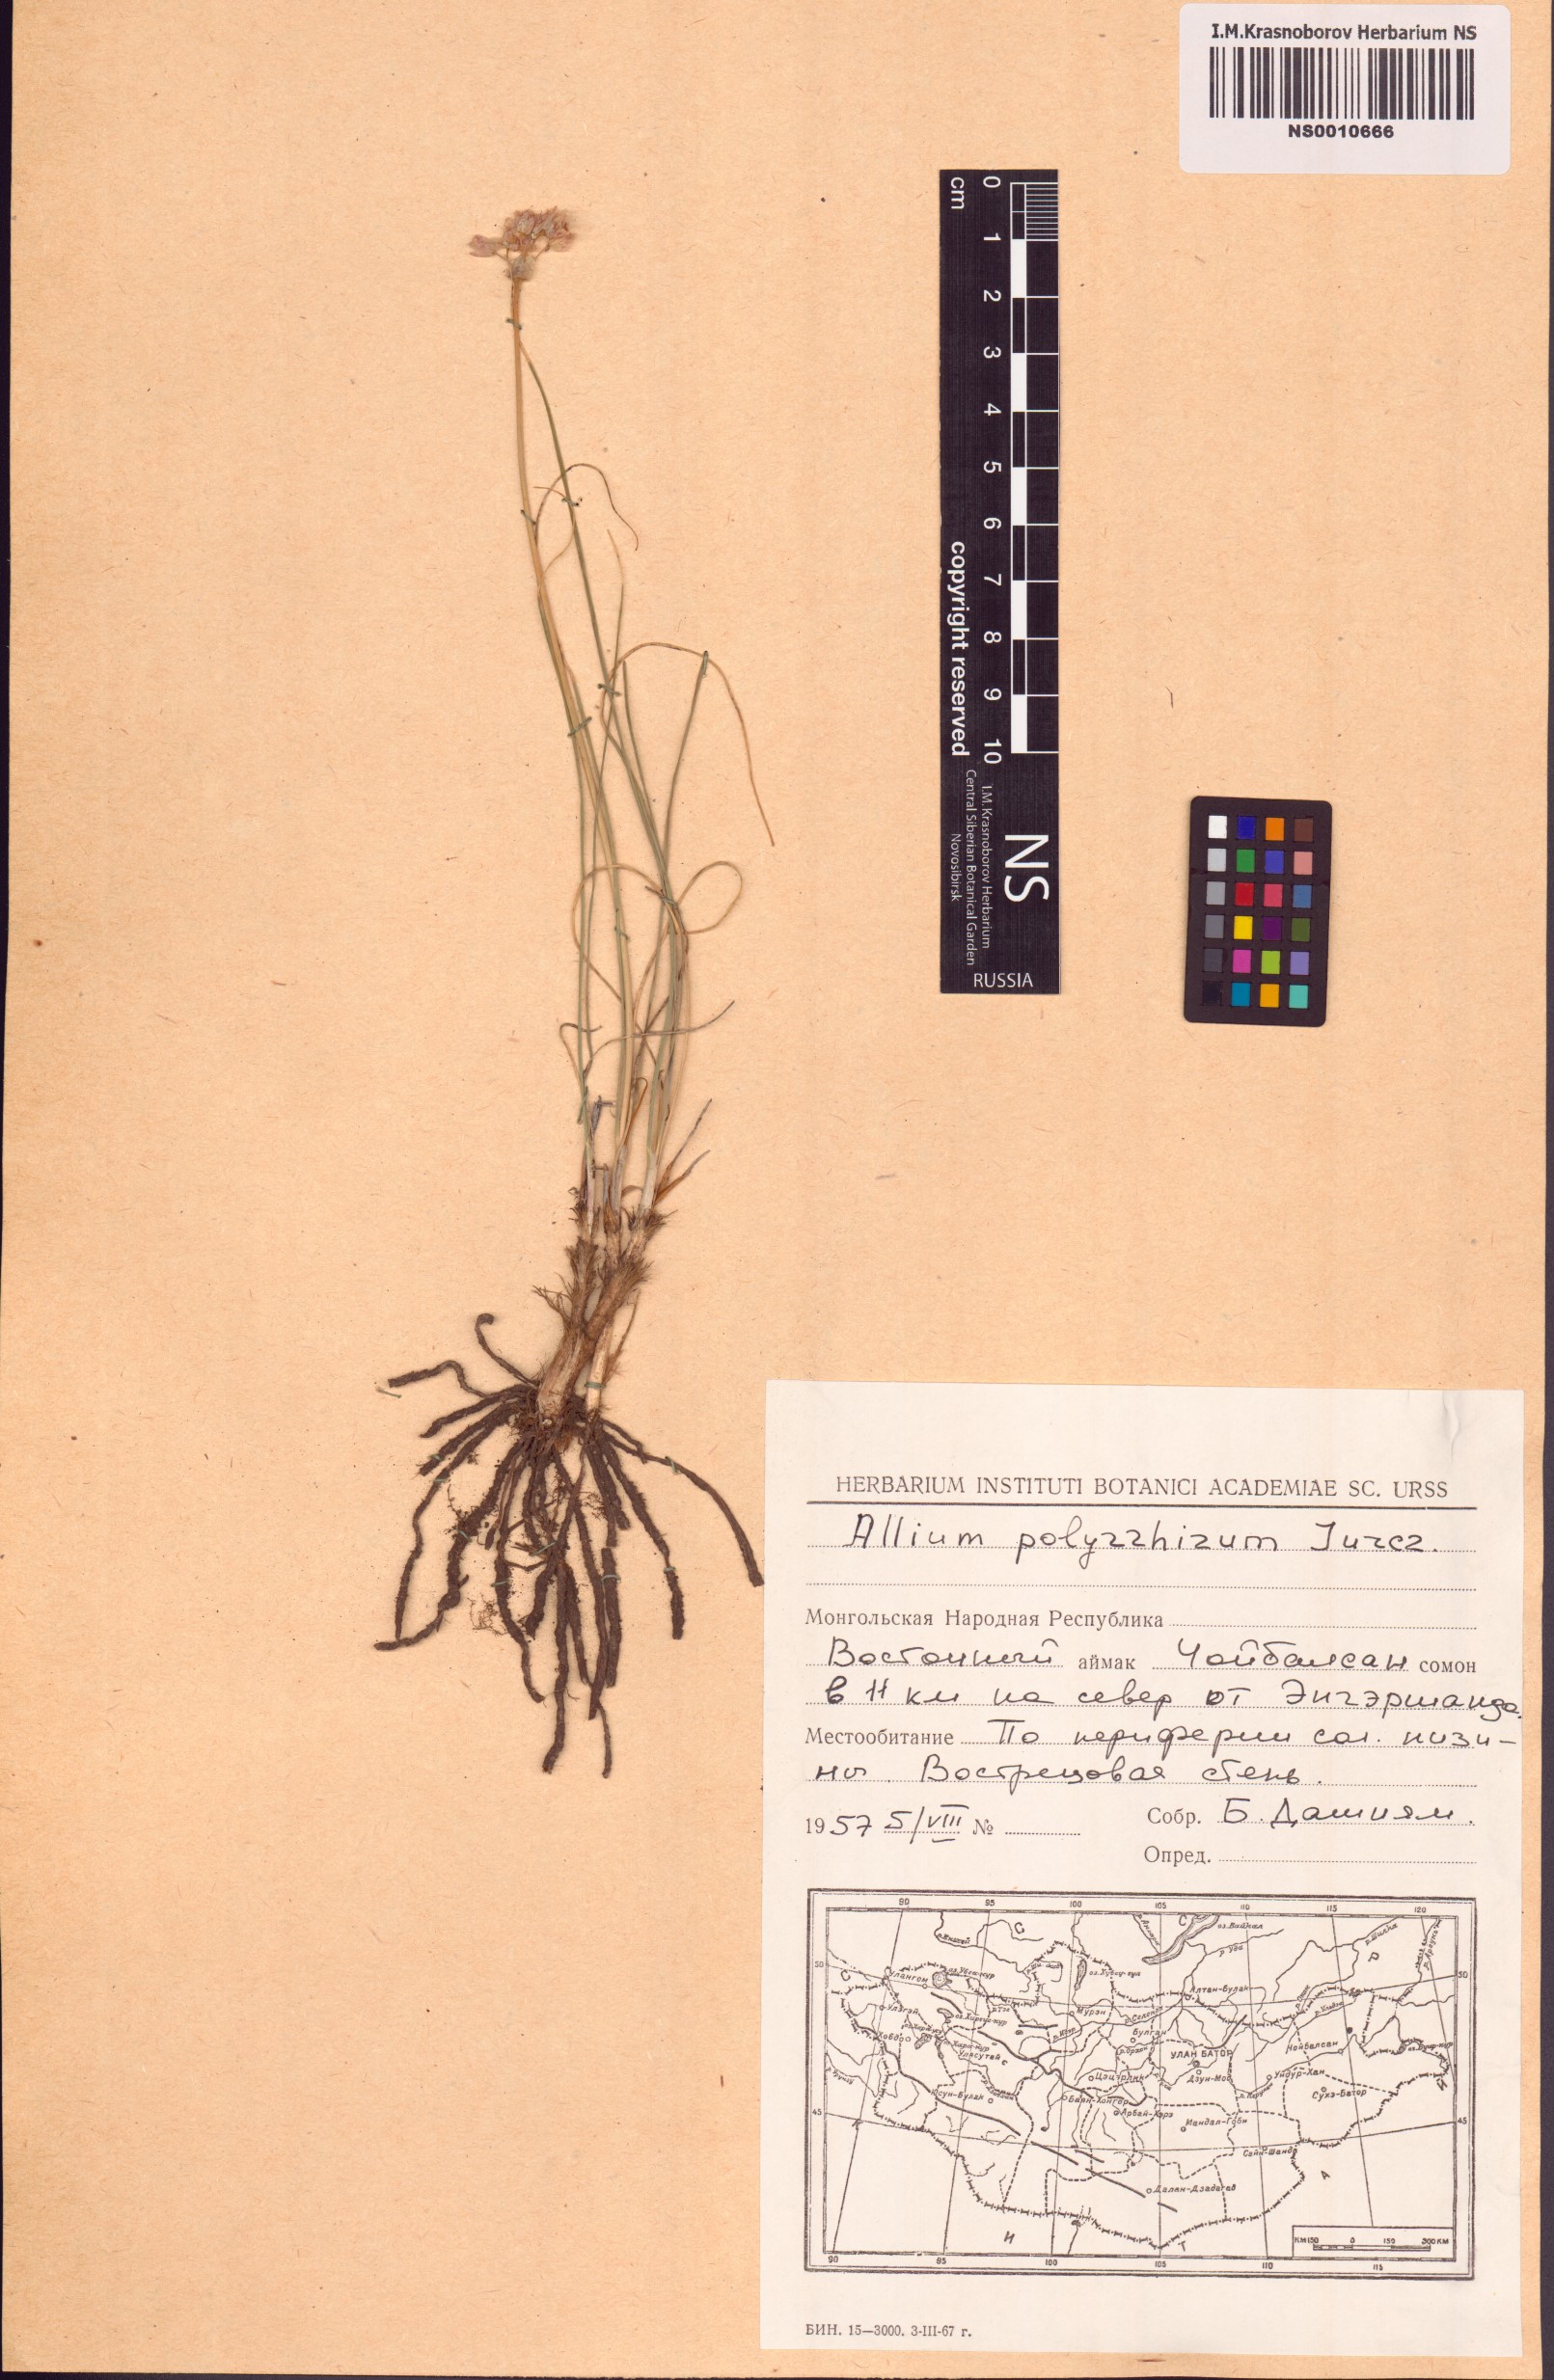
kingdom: Plantae
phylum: Tracheophyta
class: Liliopsida
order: Asparagales
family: Amaryllidaceae
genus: Allium
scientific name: Allium polyrhizum
